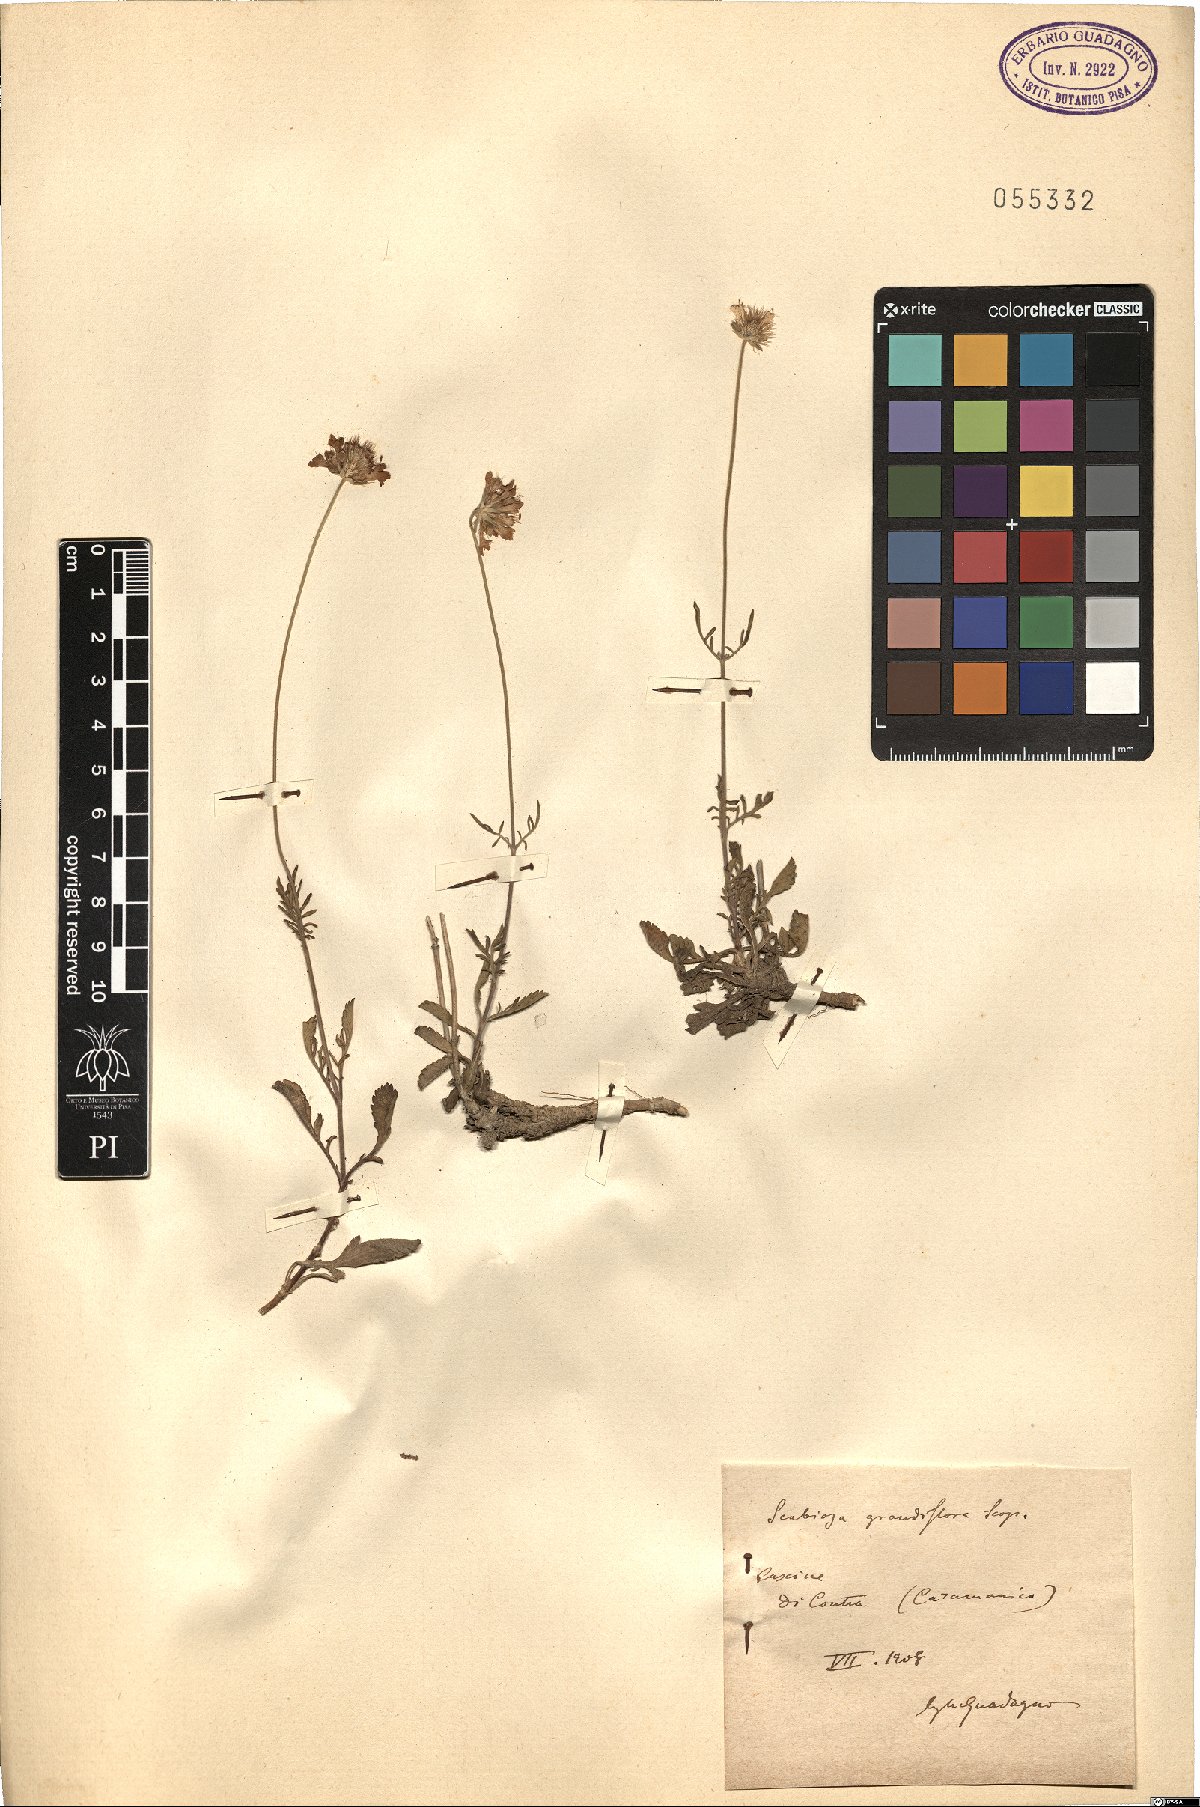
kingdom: Plantae
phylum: Tracheophyta
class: Magnoliopsida
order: Dipsacales
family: Caprifoliaceae
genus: Sixalix
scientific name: Sixalix atropurpurea
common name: Sweet scabious
